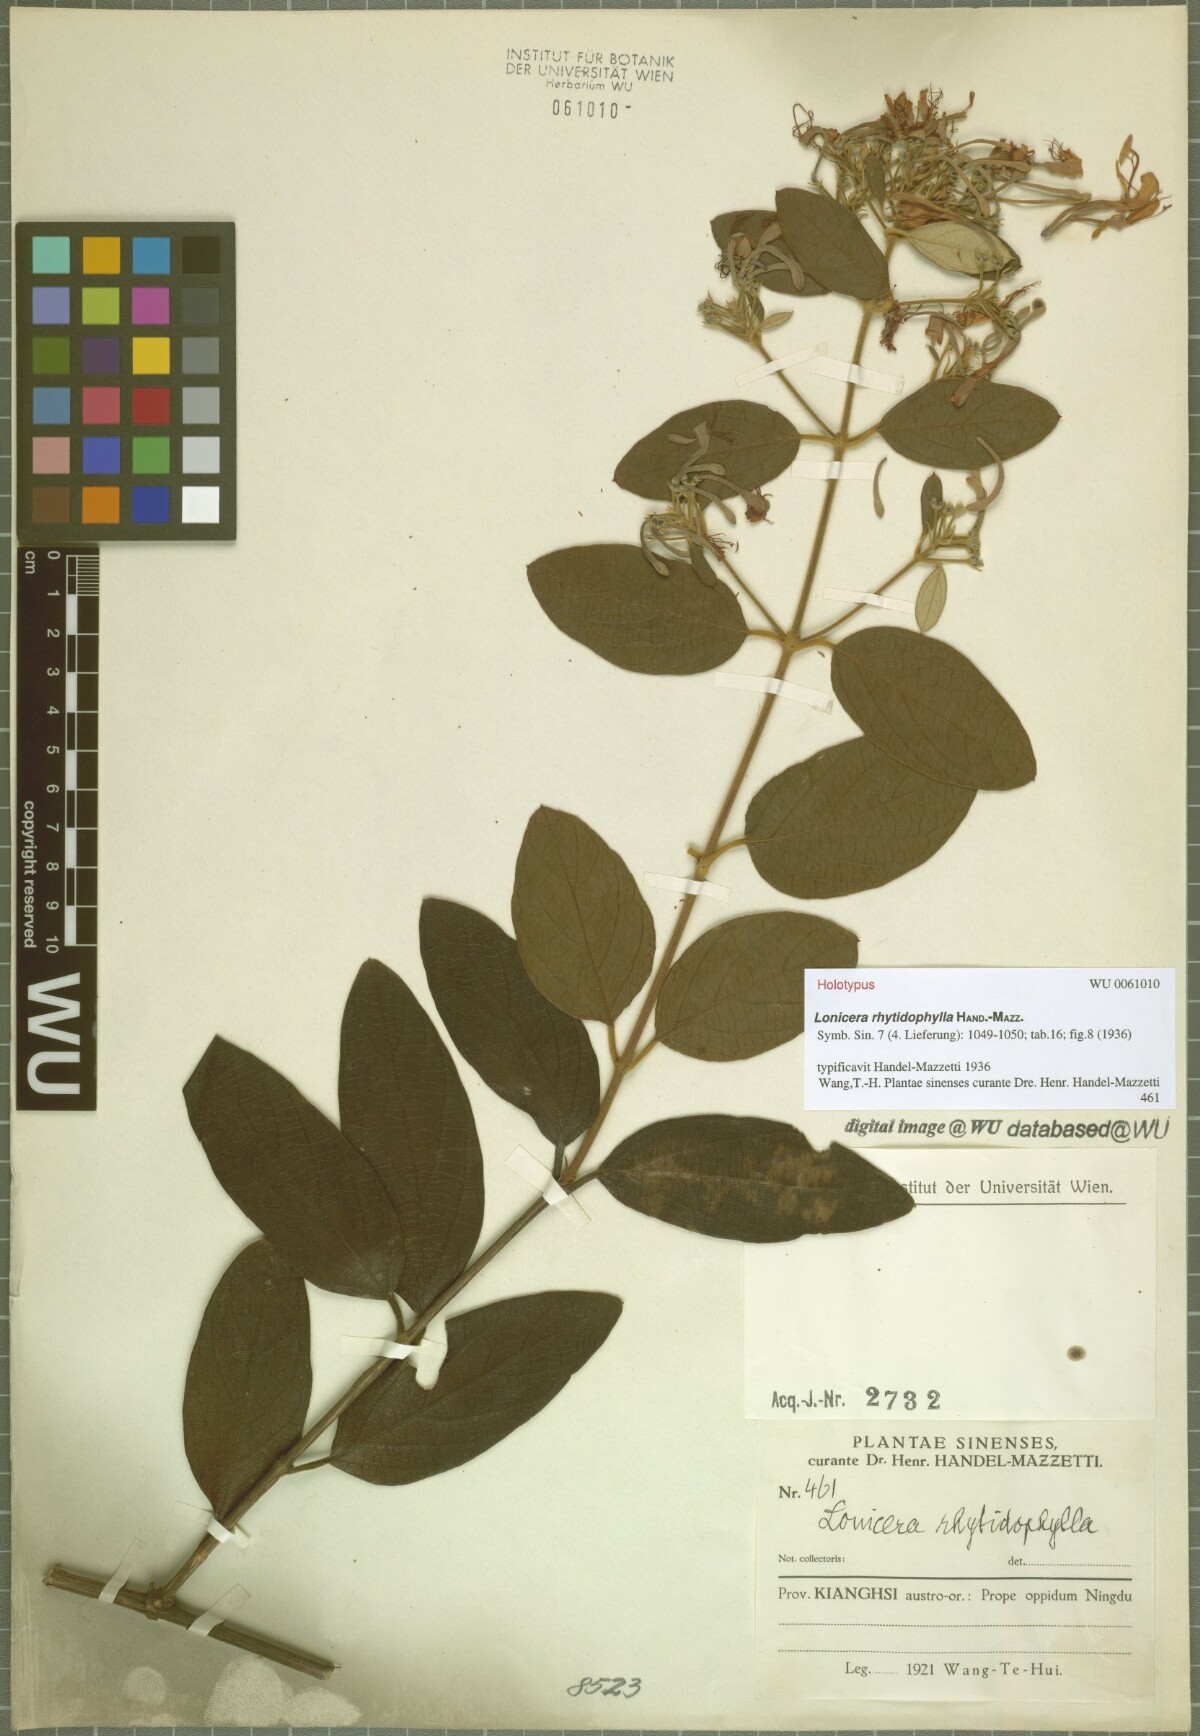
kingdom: Plantae
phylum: Tracheophyta
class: Magnoliopsida
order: Dipsacales
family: Caprifoliaceae
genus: Lonicera
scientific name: Lonicera rhytidophylla
